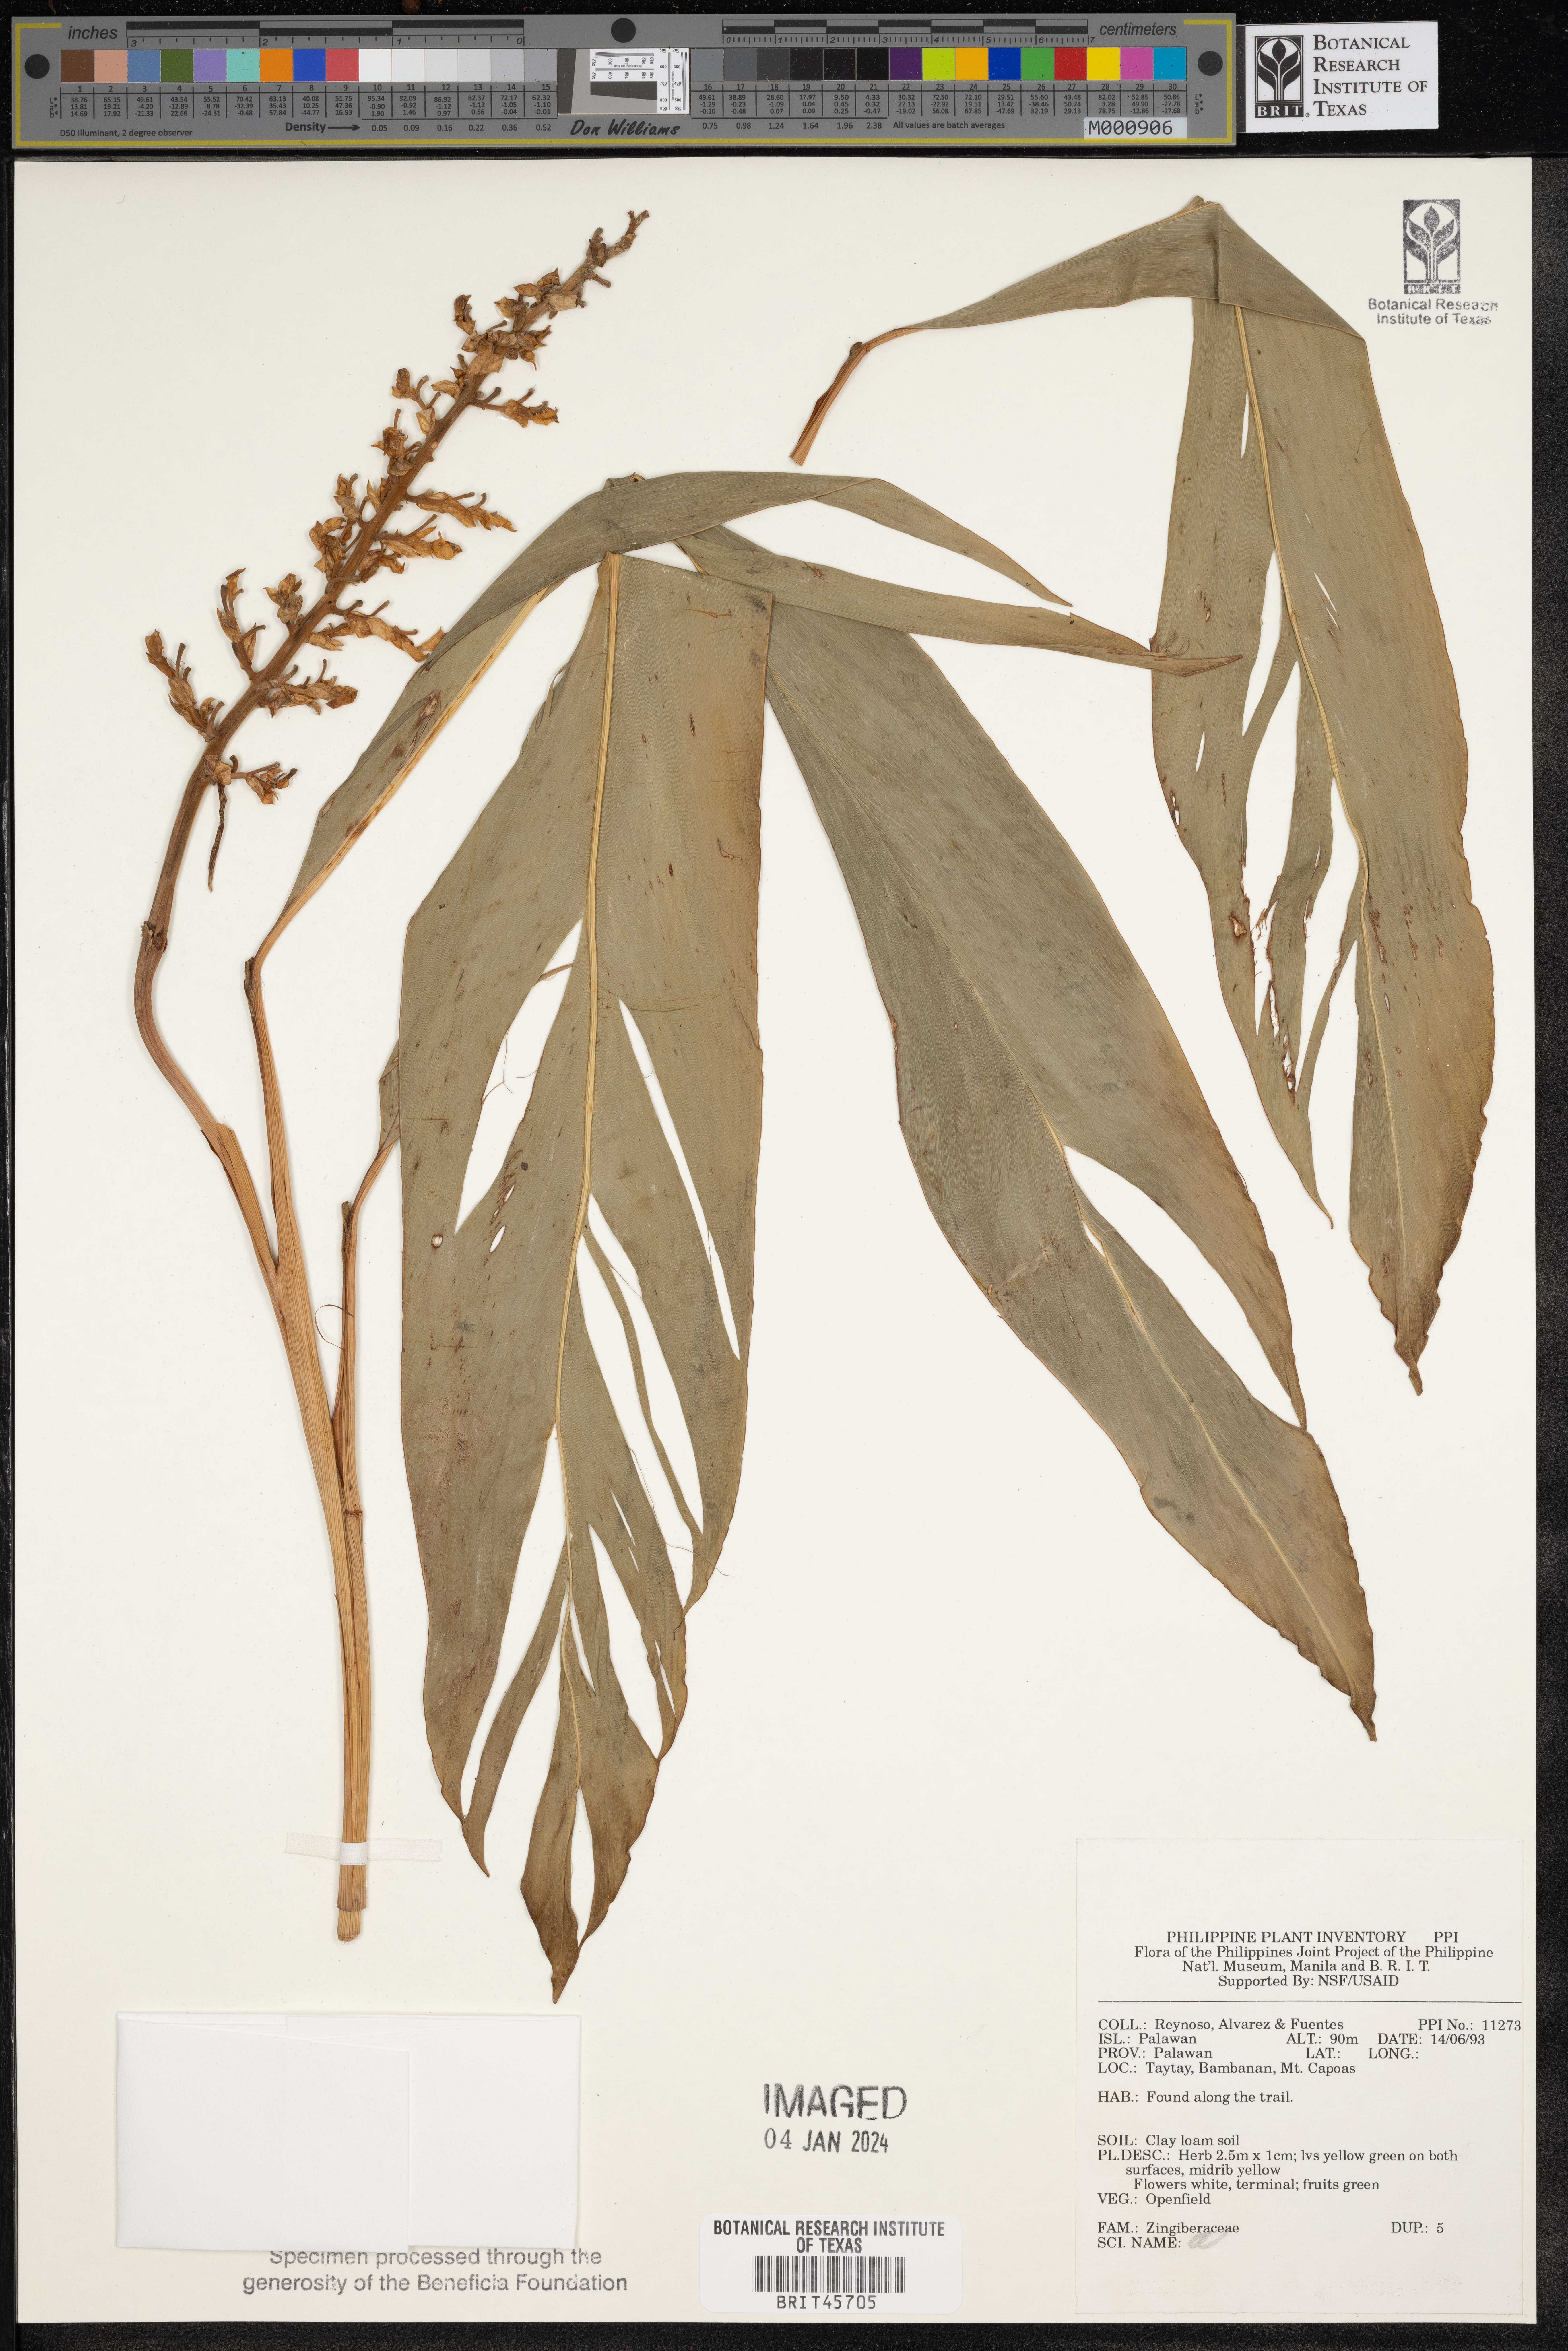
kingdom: Plantae
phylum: Tracheophyta
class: Liliopsida
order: Zingiberales
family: Zingiberaceae
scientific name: Zingiberaceae
